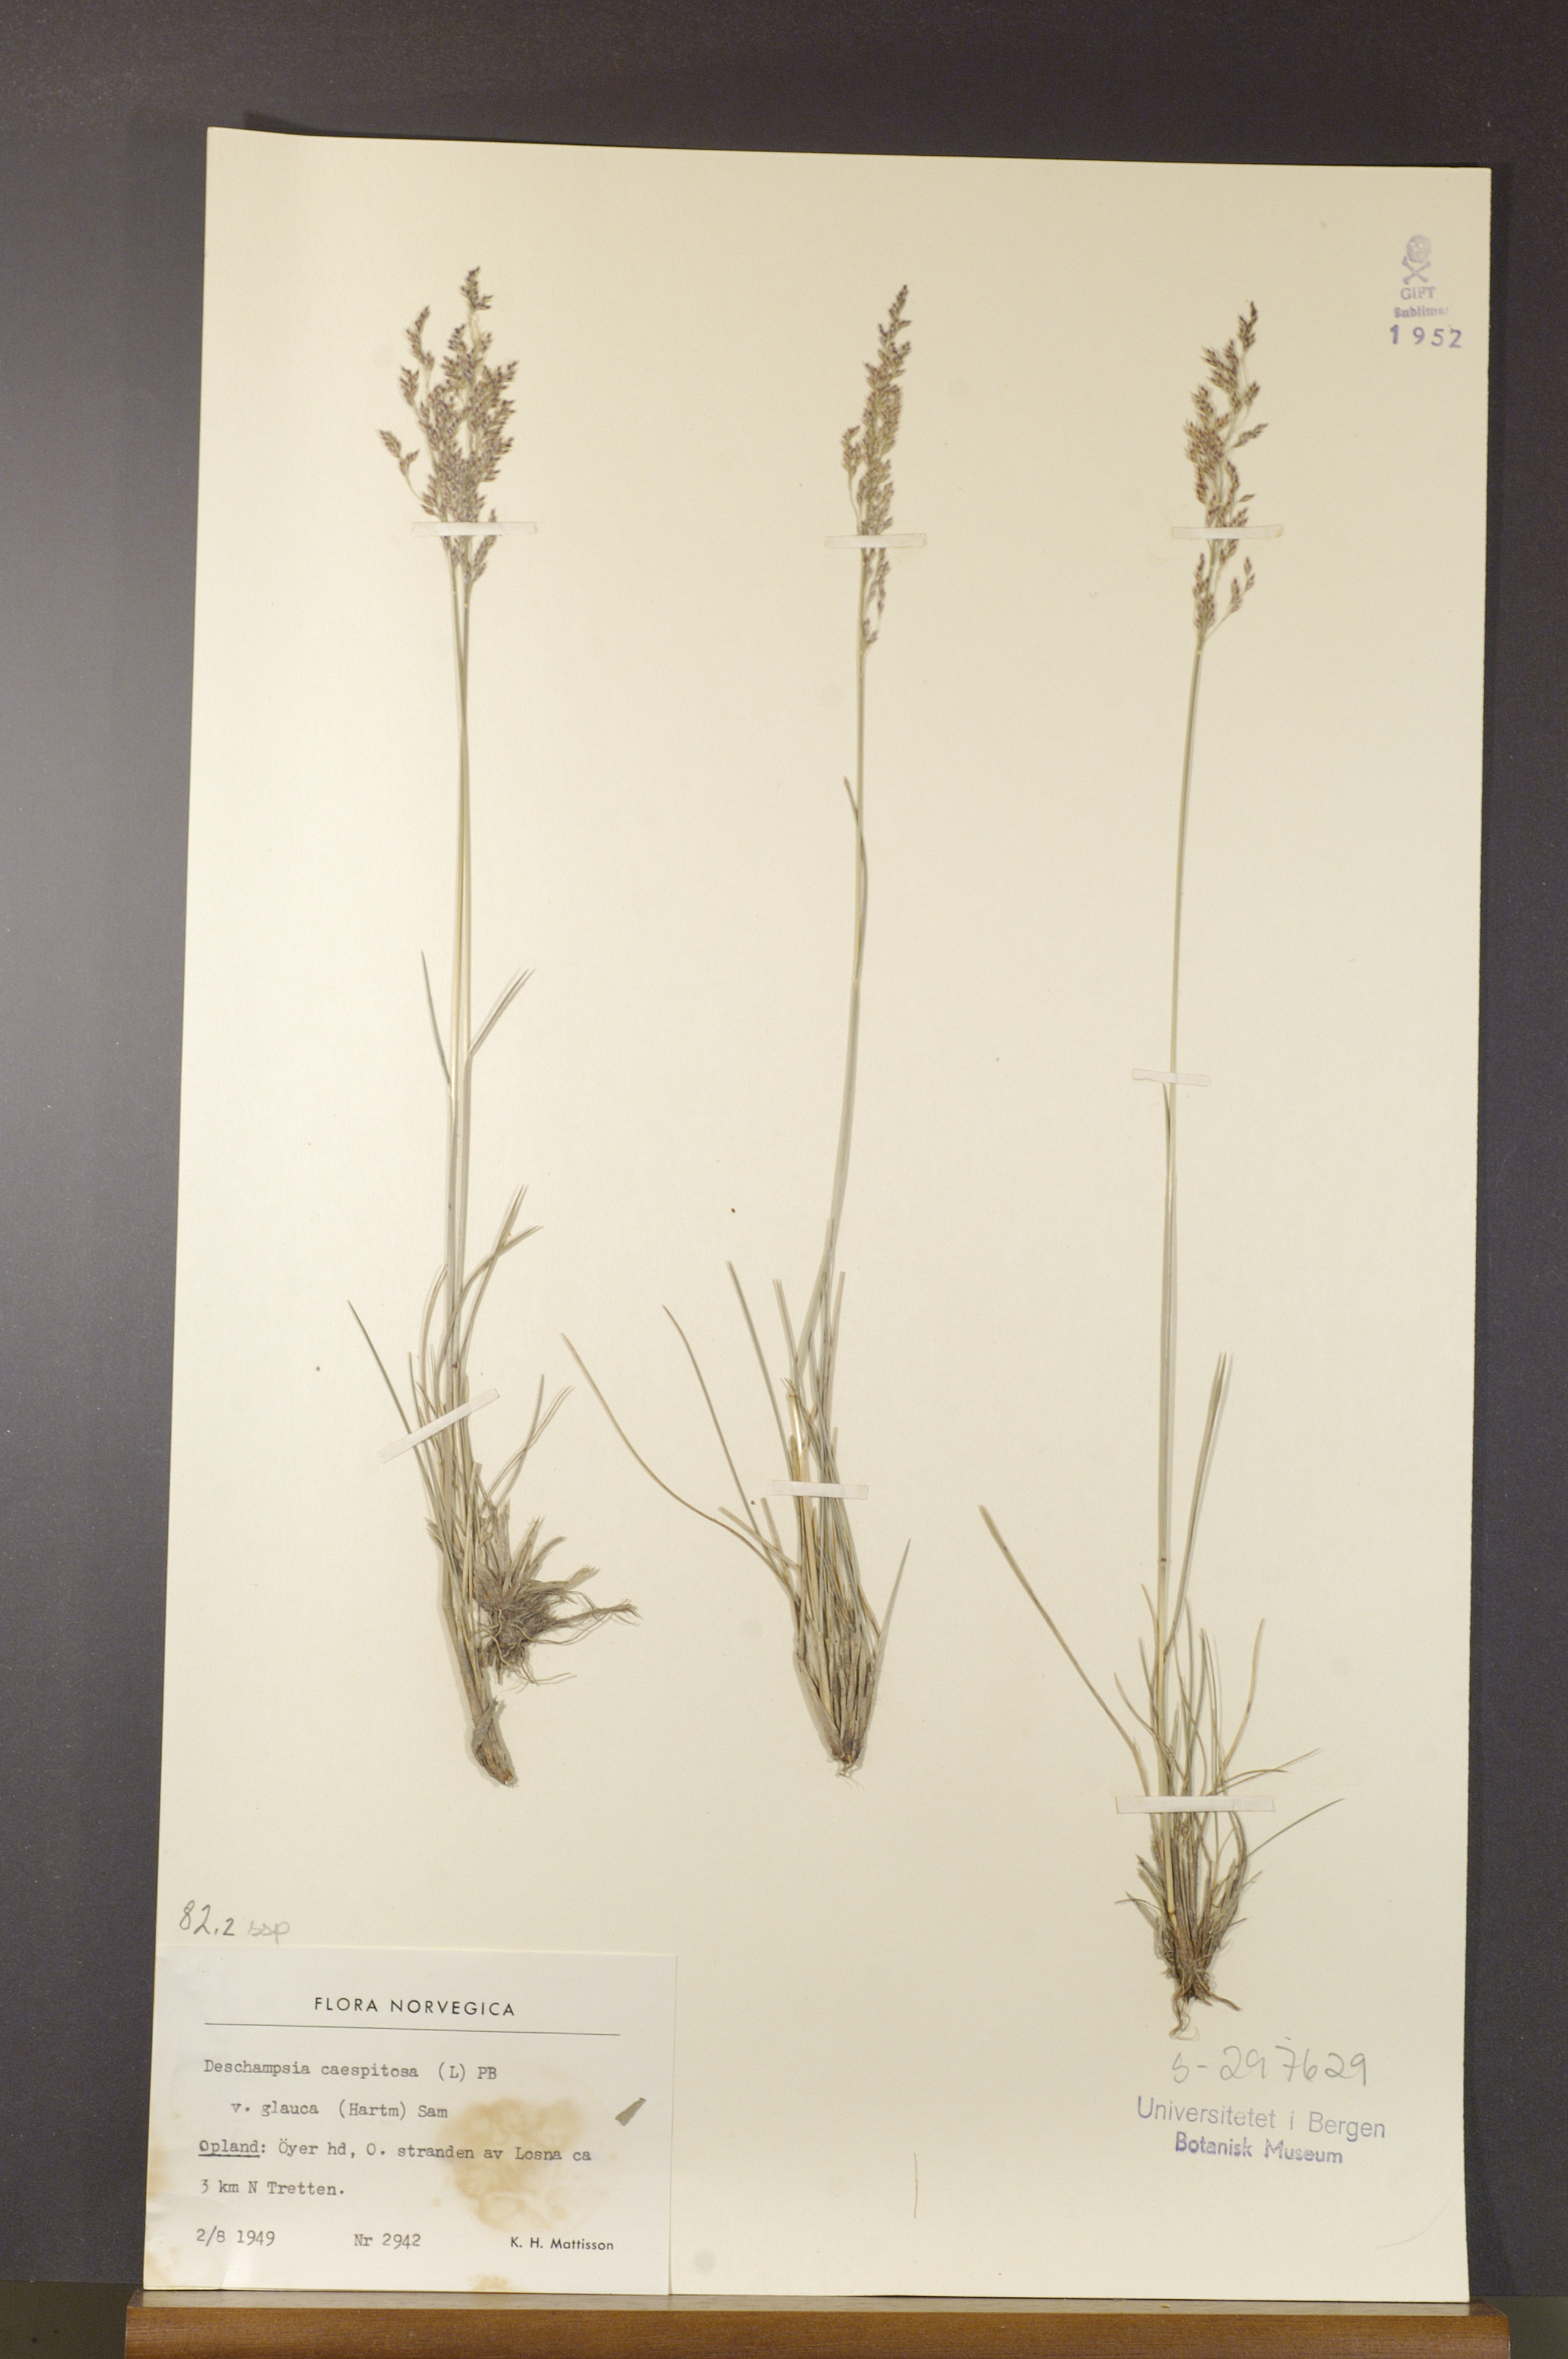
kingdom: Plantae
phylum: Tracheophyta
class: Liliopsida
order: Poales
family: Poaceae
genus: Deschampsia
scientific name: Deschampsia cespitosa
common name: Tufted hair-grass
